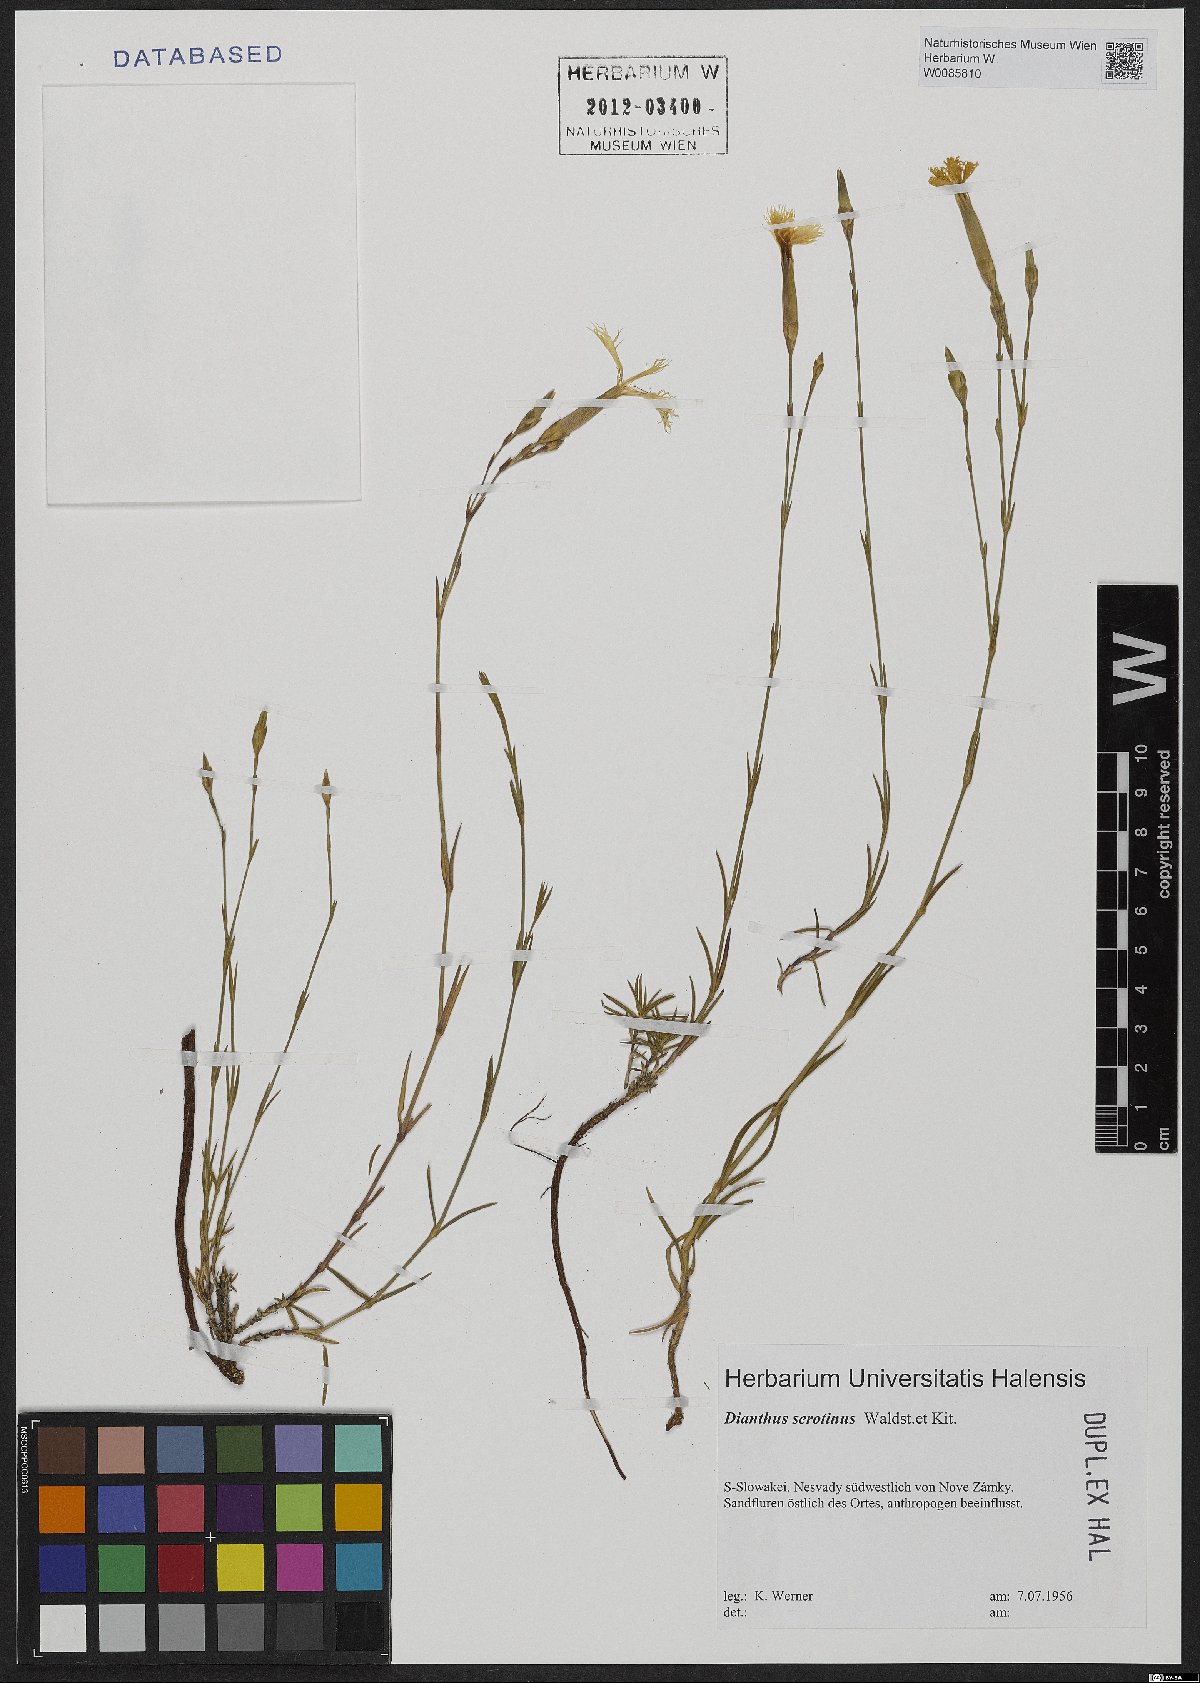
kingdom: Plantae
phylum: Tracheophyta
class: Magnoliopsida
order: Caryophyllales
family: Caryophyllaceae
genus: Dianthus
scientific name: Dianthus serotinus
